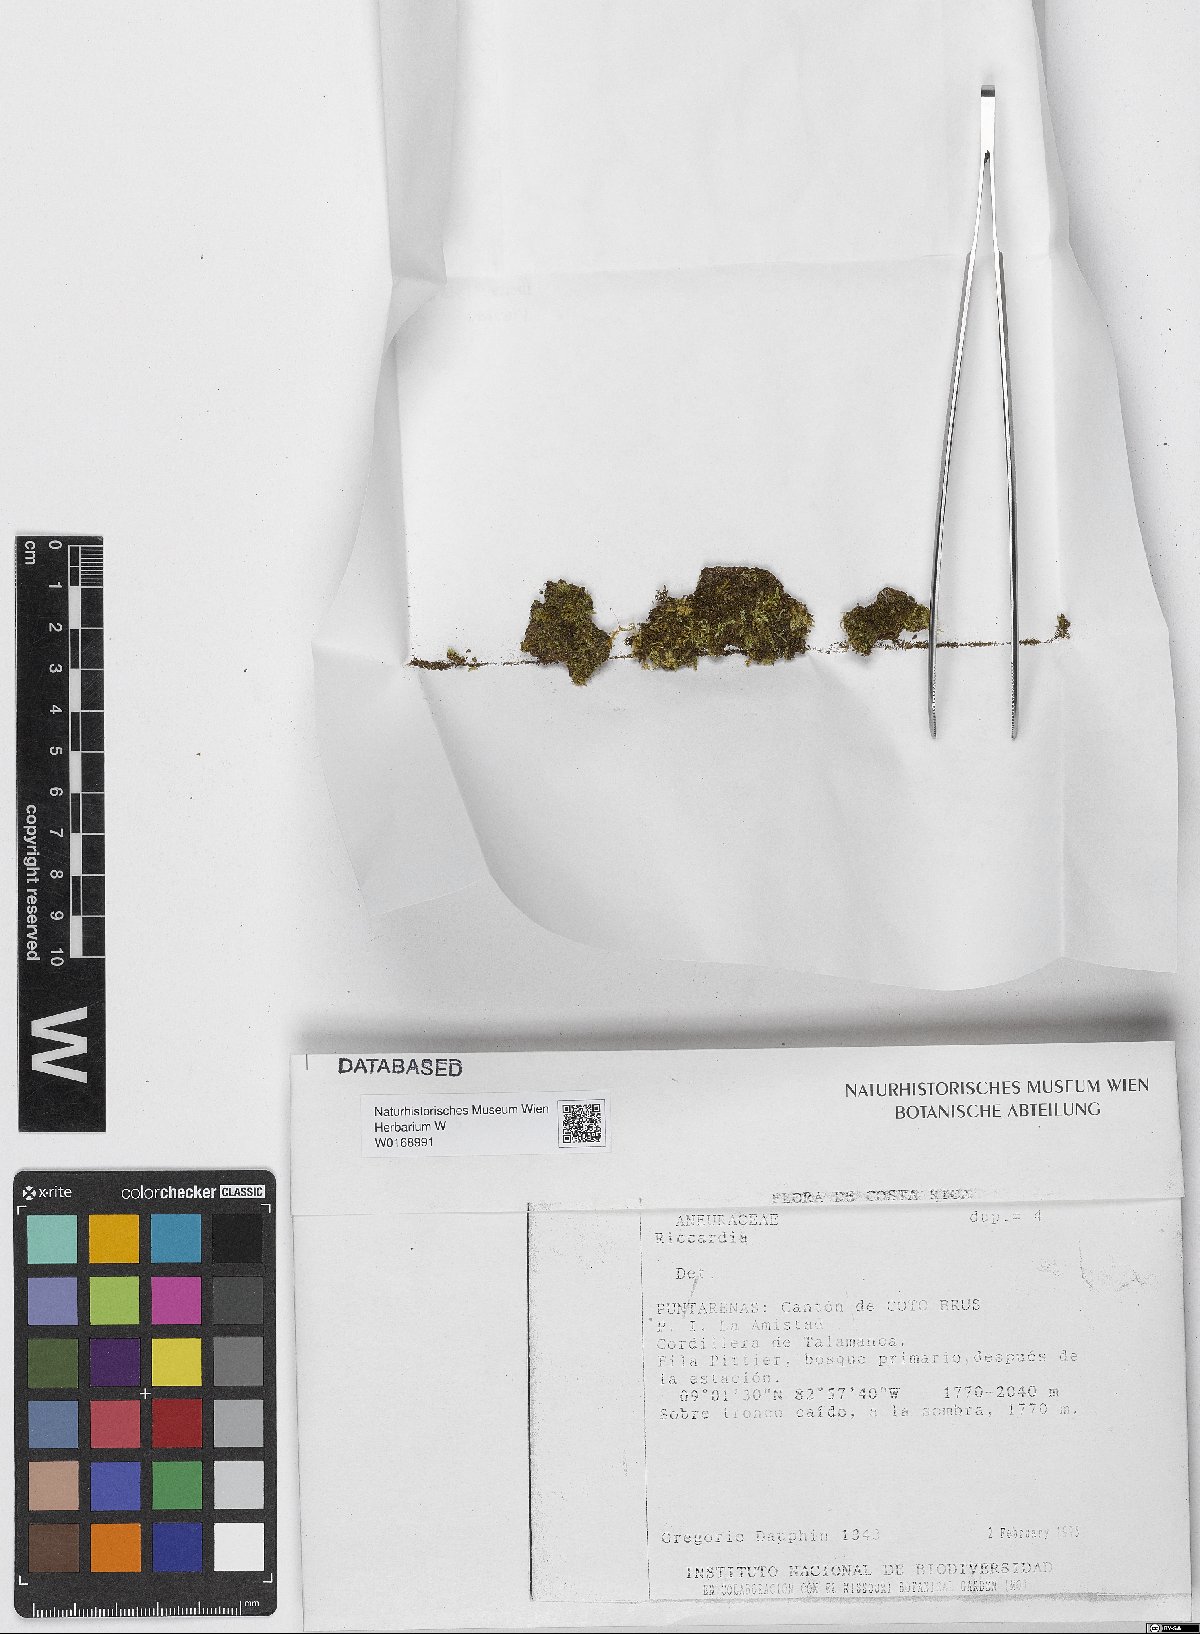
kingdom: Plantae
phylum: Marchantiophyta
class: Jungermanniopsida
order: Metzgeriales
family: Aneuraceae
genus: Riccardia
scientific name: Riccardia
